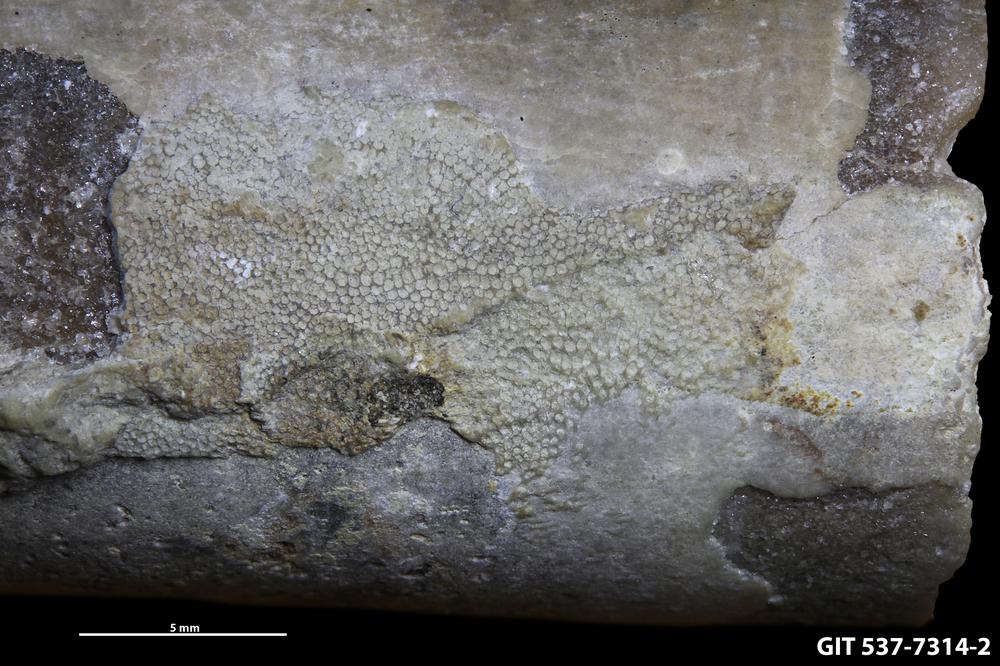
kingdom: Animalia
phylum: Bryozoa
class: Stenolaemata
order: Cystoporida
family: Acanthoceramoporellidae
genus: Minutolunaria
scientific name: Minutolunaria brevipora
